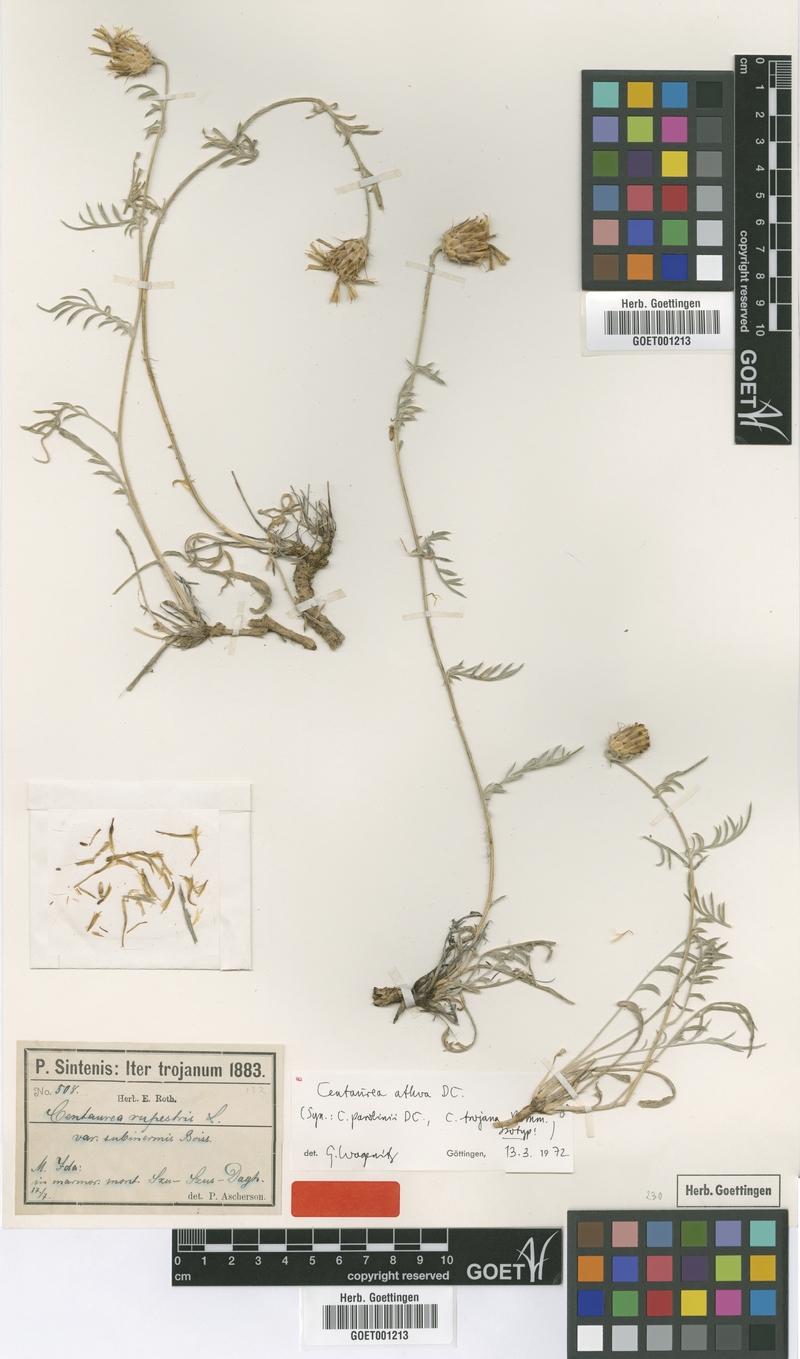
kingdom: Plantae
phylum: Tracheophyta
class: Magnoliopsida
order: Asterales
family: Asteraceae
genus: Centaurea
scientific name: Centaurea athoa
